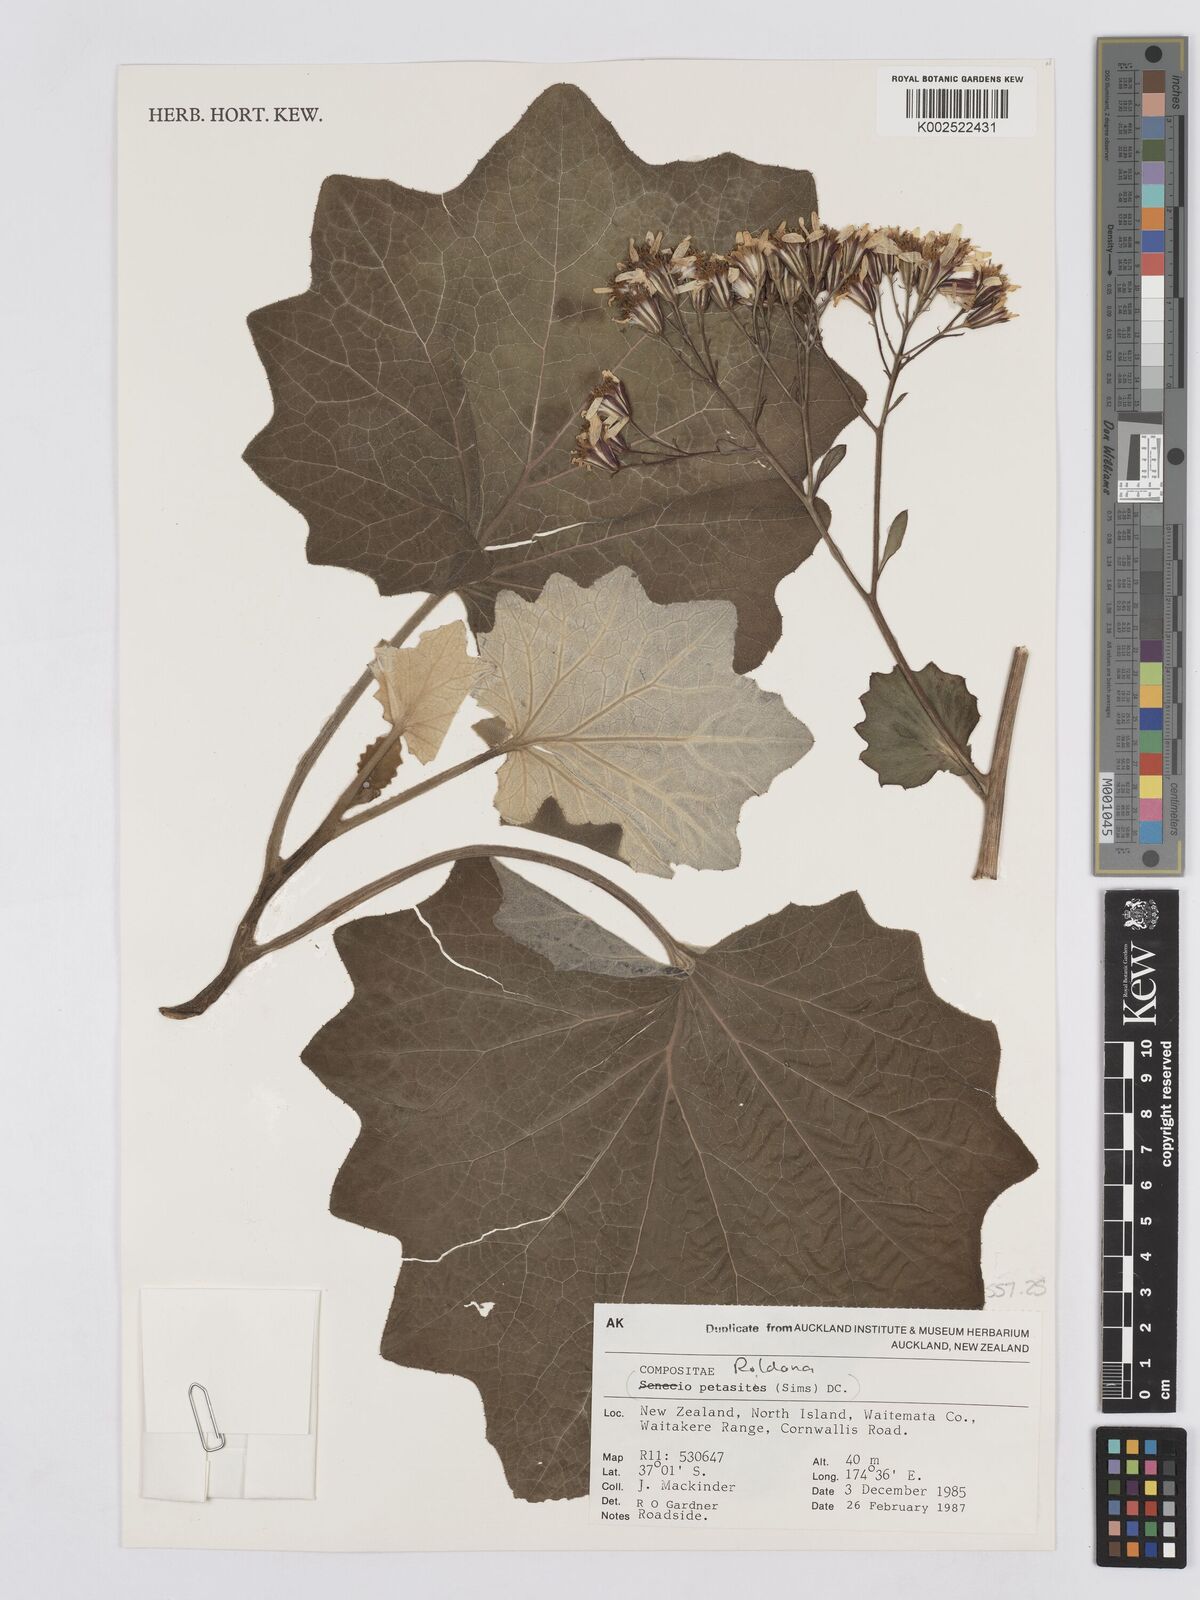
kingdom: Plantae
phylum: Tracheophyta
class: Magnoliopsida
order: Asterales
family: Asteraceae
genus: Roldana
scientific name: Roldana petasitis
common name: California-geranium
